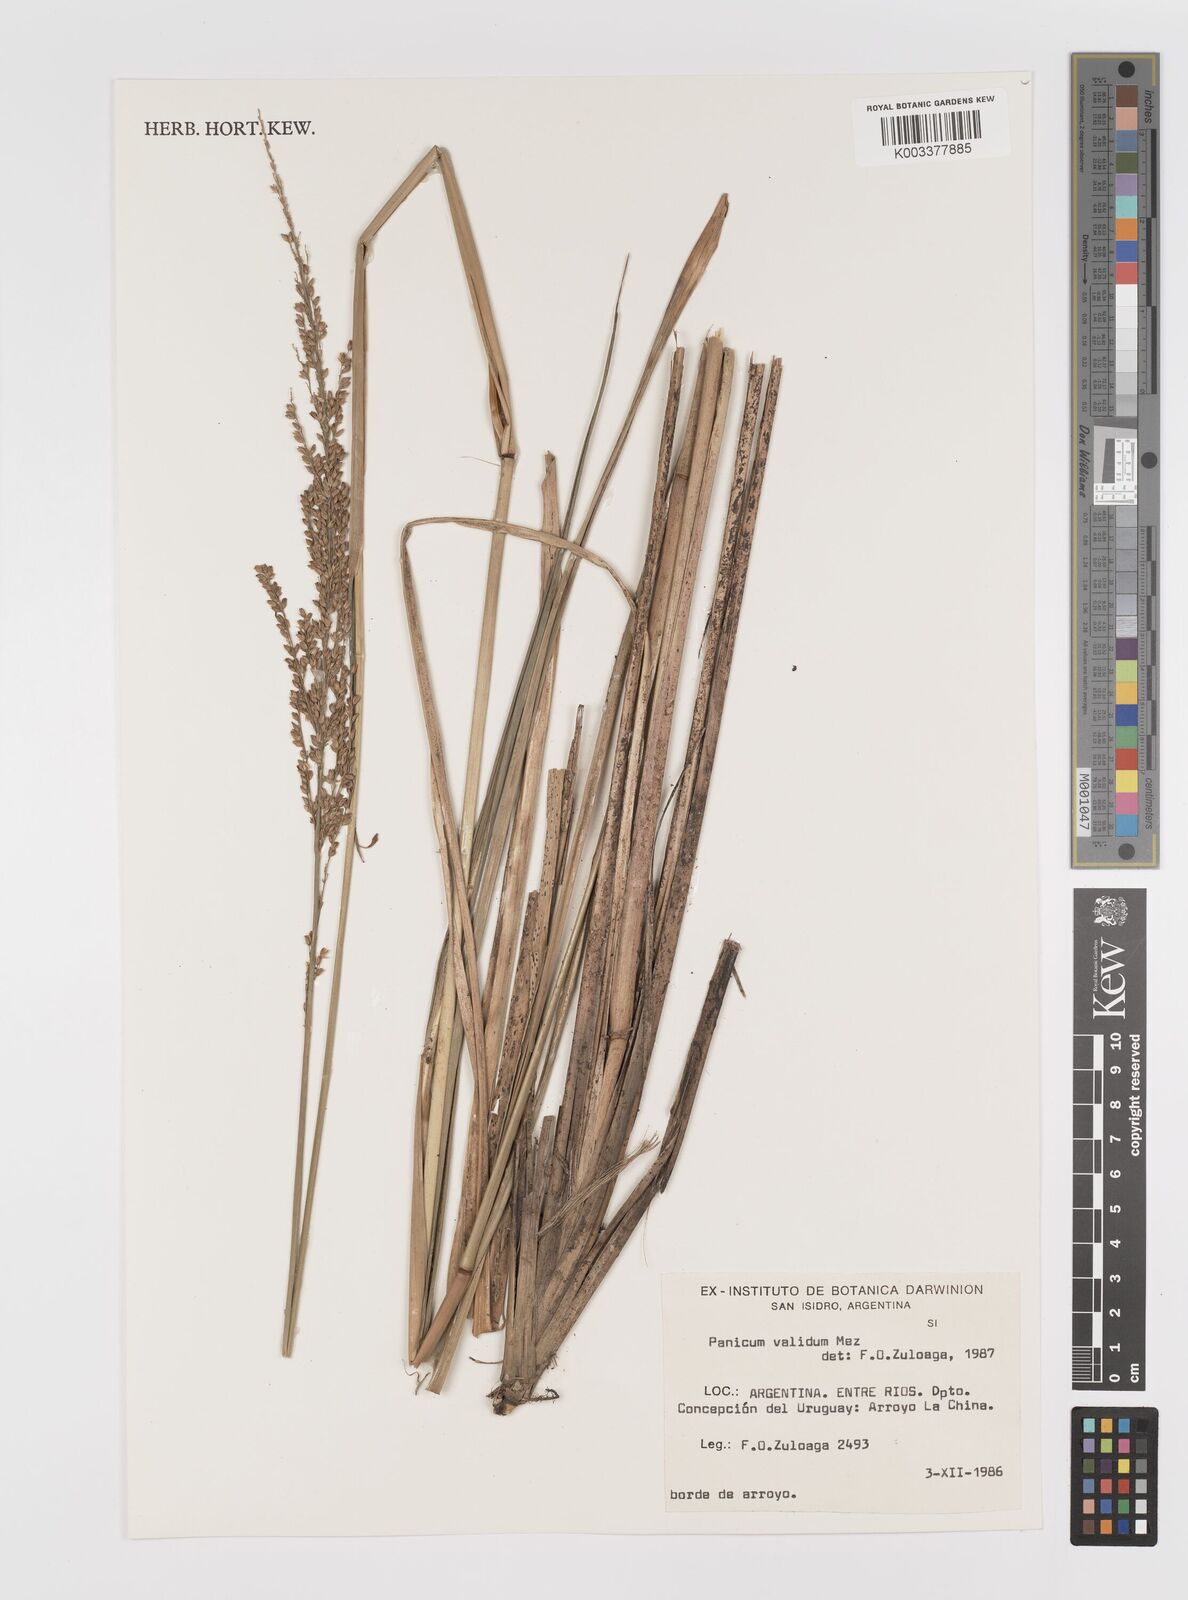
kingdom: Plantae
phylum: Tracheophyta
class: Liliopsida
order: Poales
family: Poaceae
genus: Osvaldoa
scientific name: Osvaldoa valida
